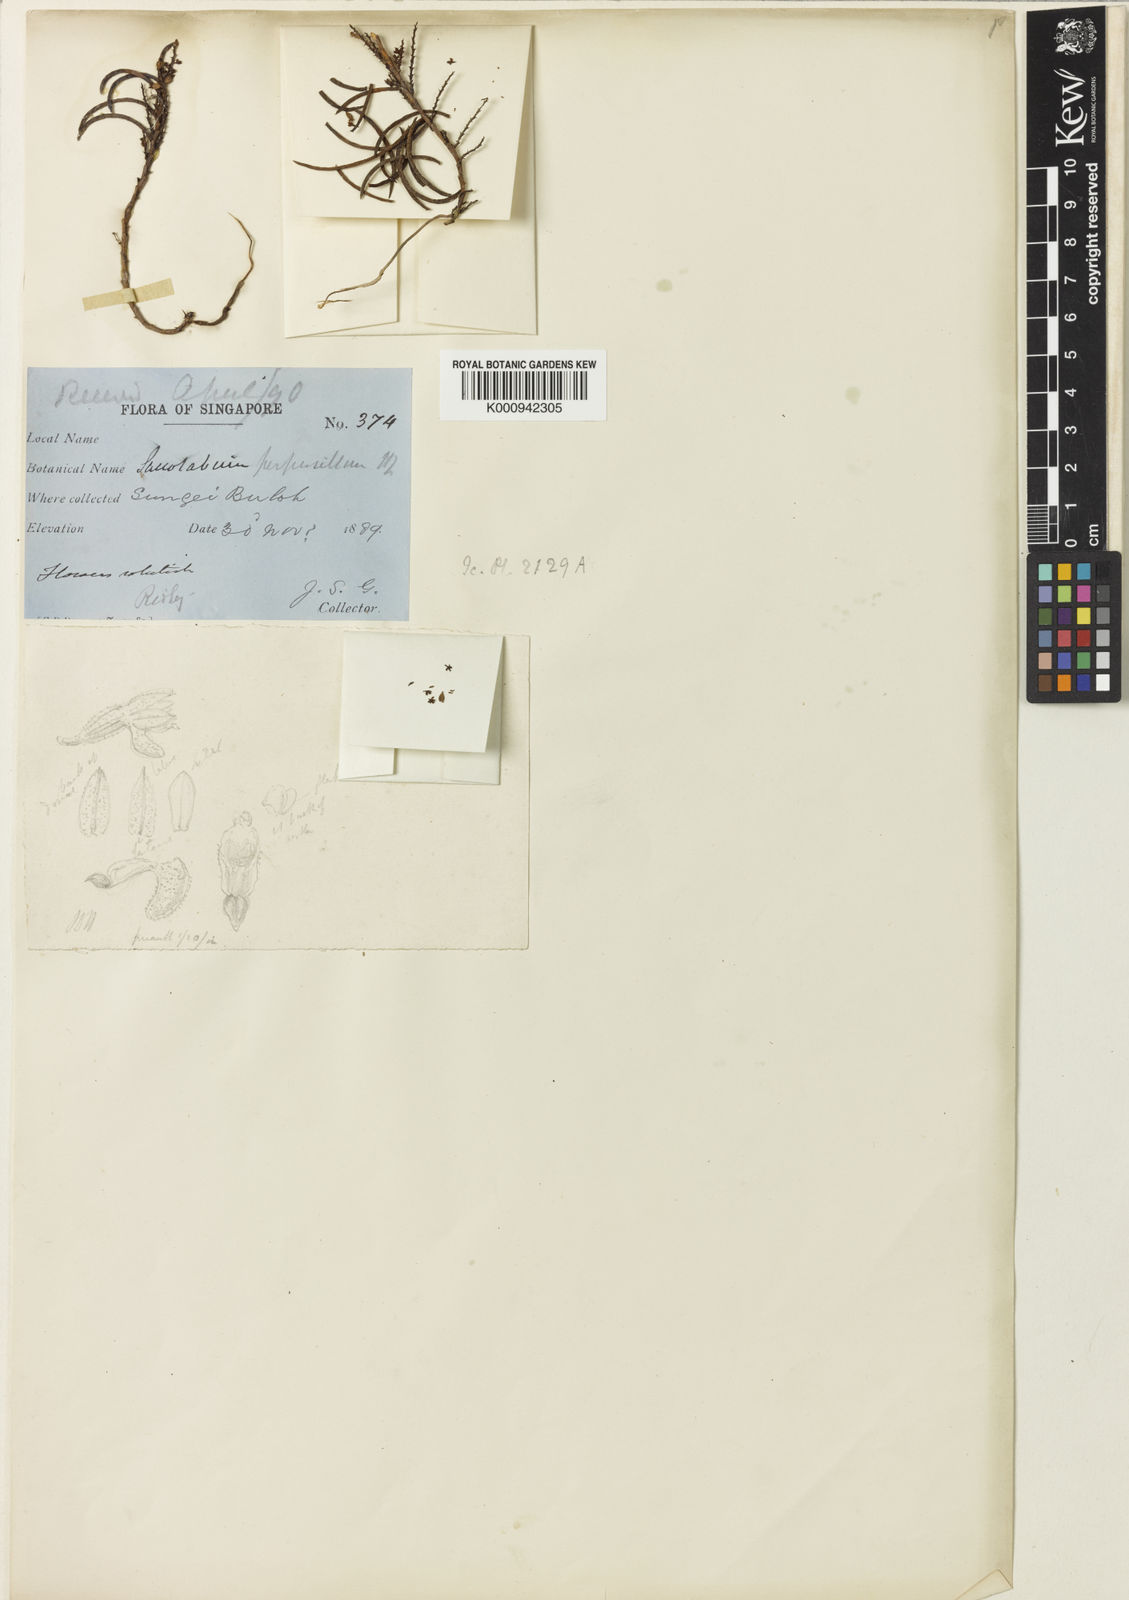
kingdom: Plantae
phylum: Tracheophyta
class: Liliopsida
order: Asparagales
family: Orchidaceae
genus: Schoenorchis
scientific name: Schoenorchis micrantha
